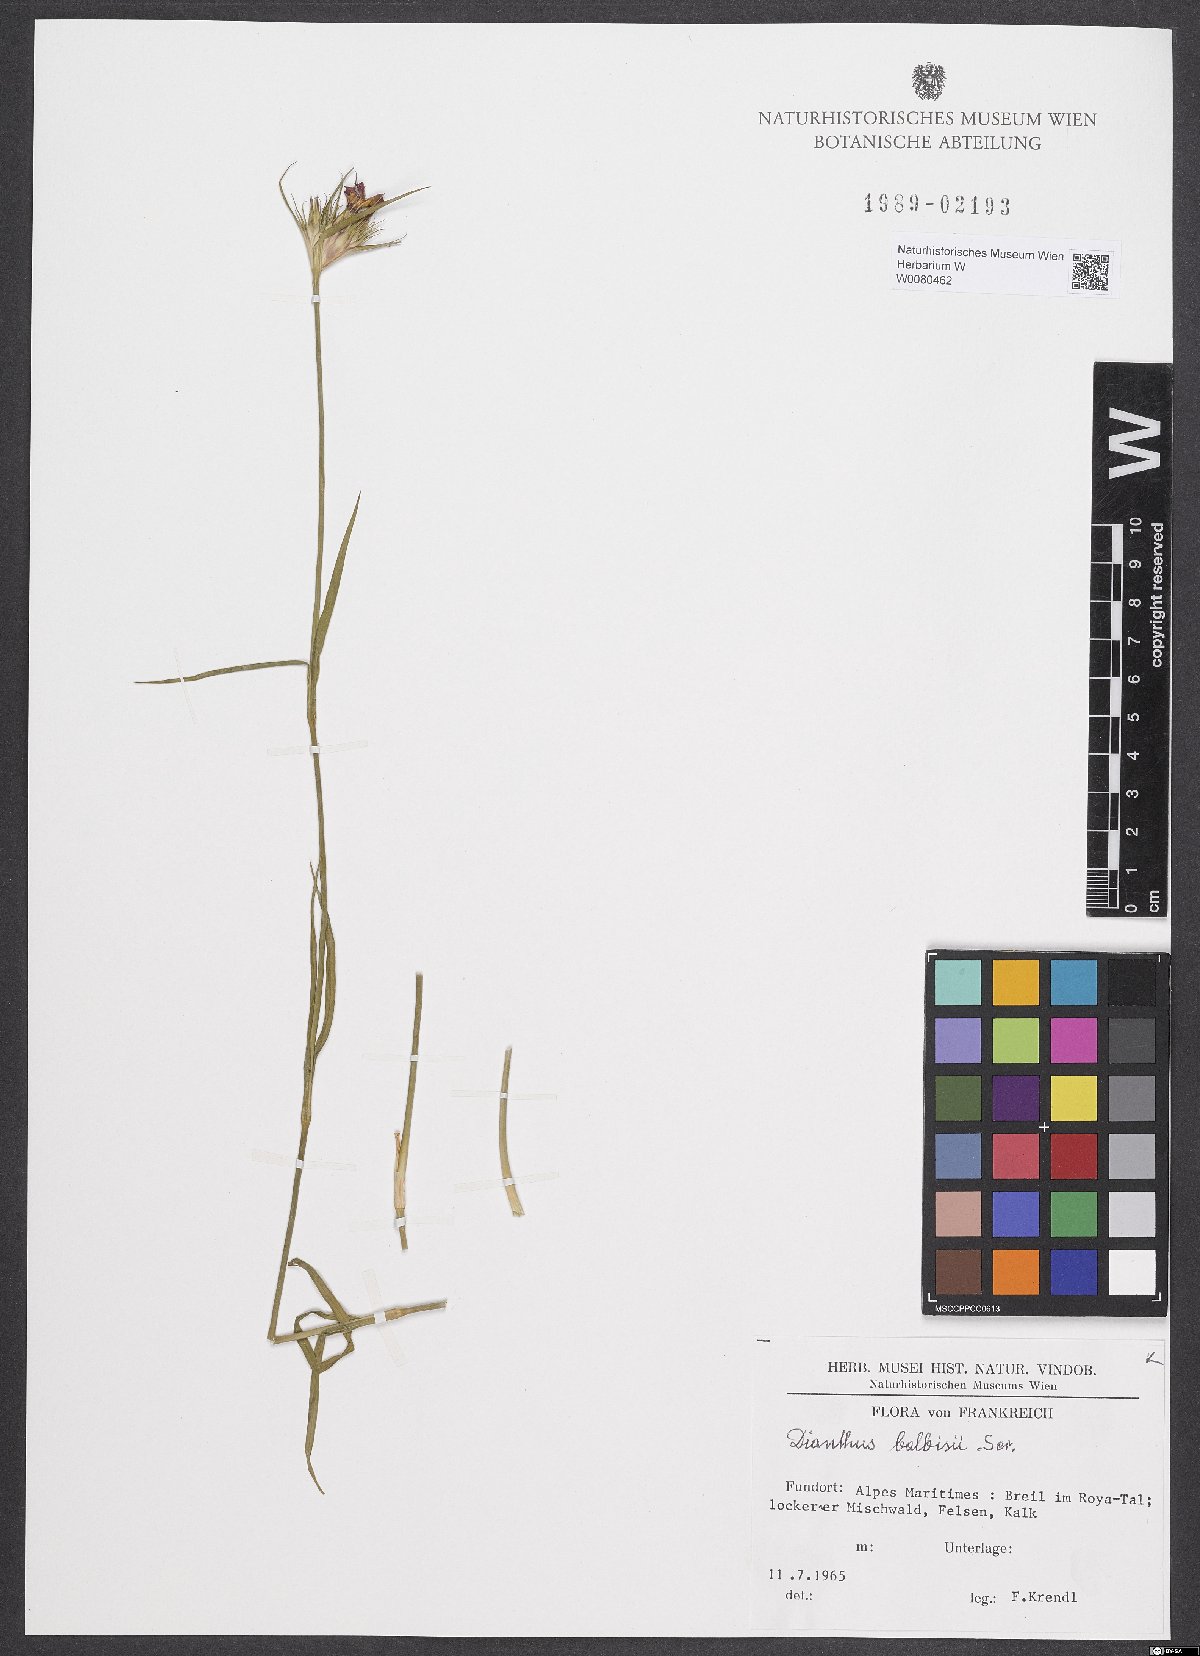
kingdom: Plantae
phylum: Tracheophyta
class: Magnoliopsida
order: Caryophyllales
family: Caryophyllaceae
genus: Dianthus
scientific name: Dianthus balbisii
